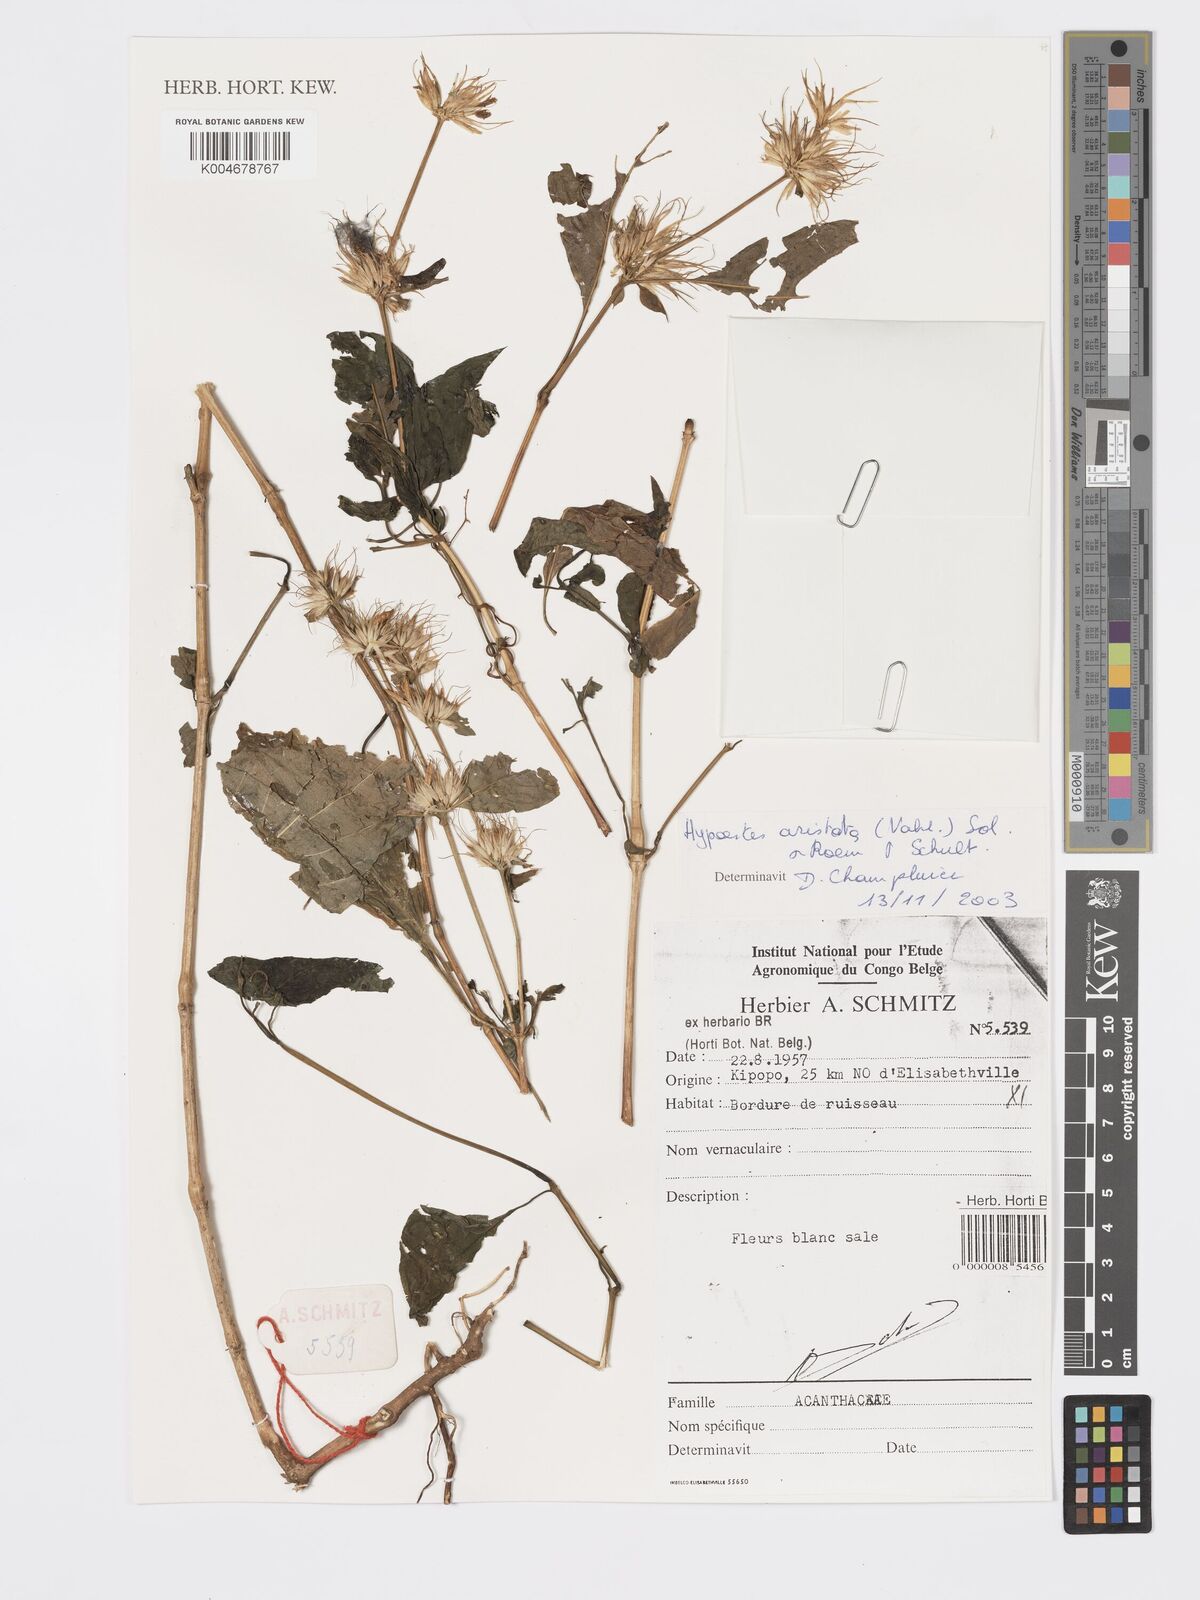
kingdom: Plantae
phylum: Tracheophyta
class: Magnoliopsida
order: Lamiales
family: Acanthaceae
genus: Hypoestes
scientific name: Hypoestes aristata
